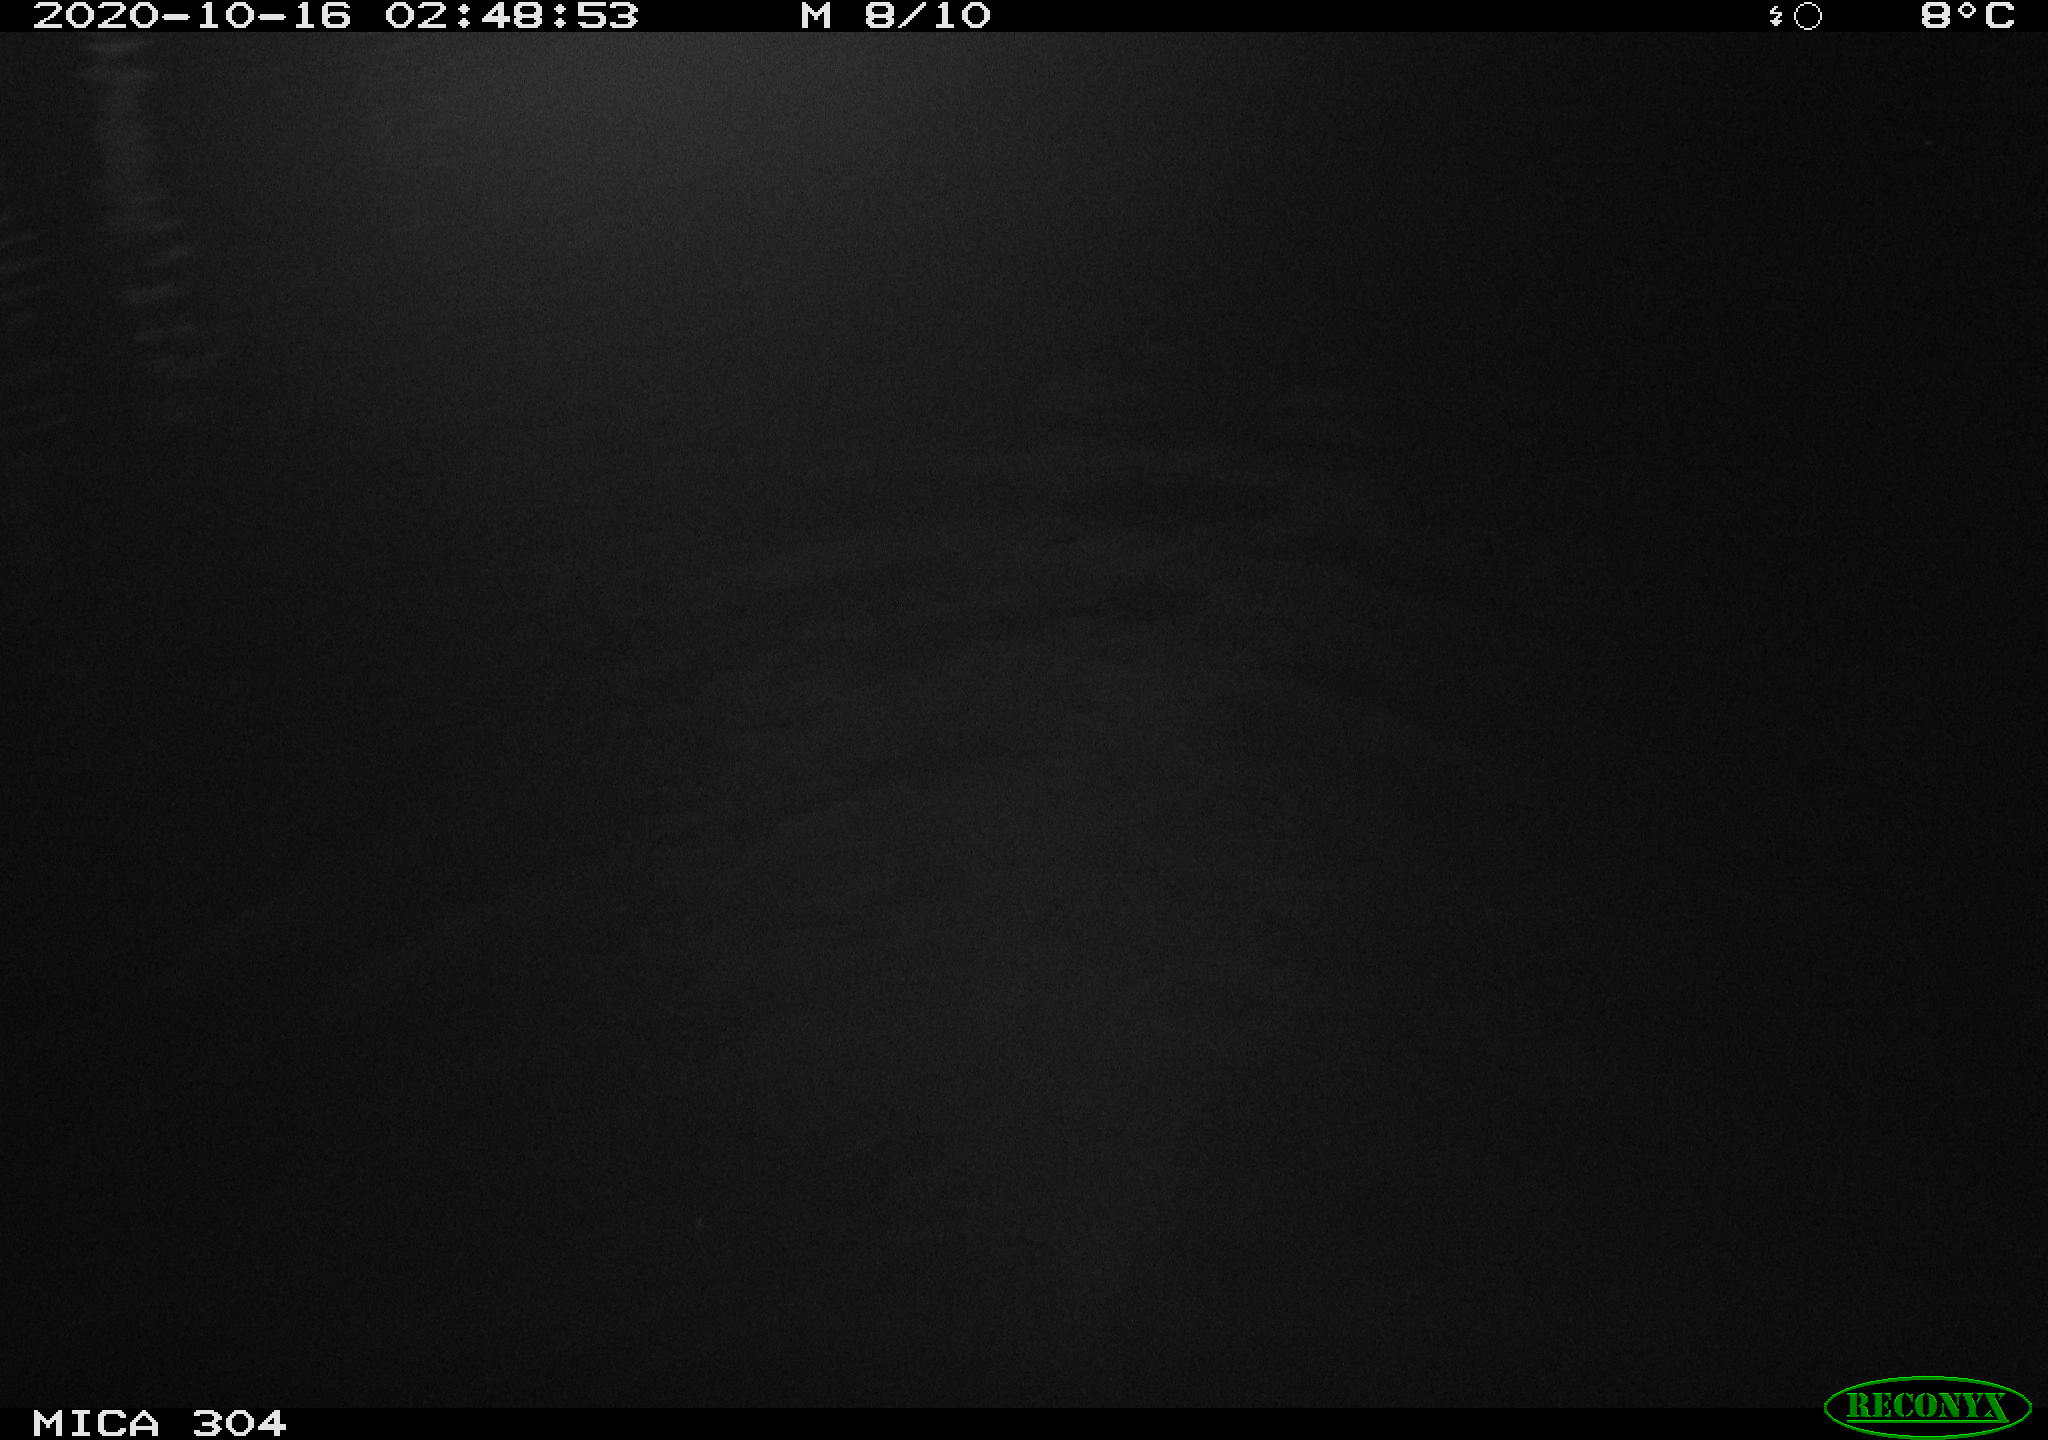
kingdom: Animalia
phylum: Chordata
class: Mammalia
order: Rodentia
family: Muridae
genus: Rattus
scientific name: Rattus norvegicus
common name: Brown rat
